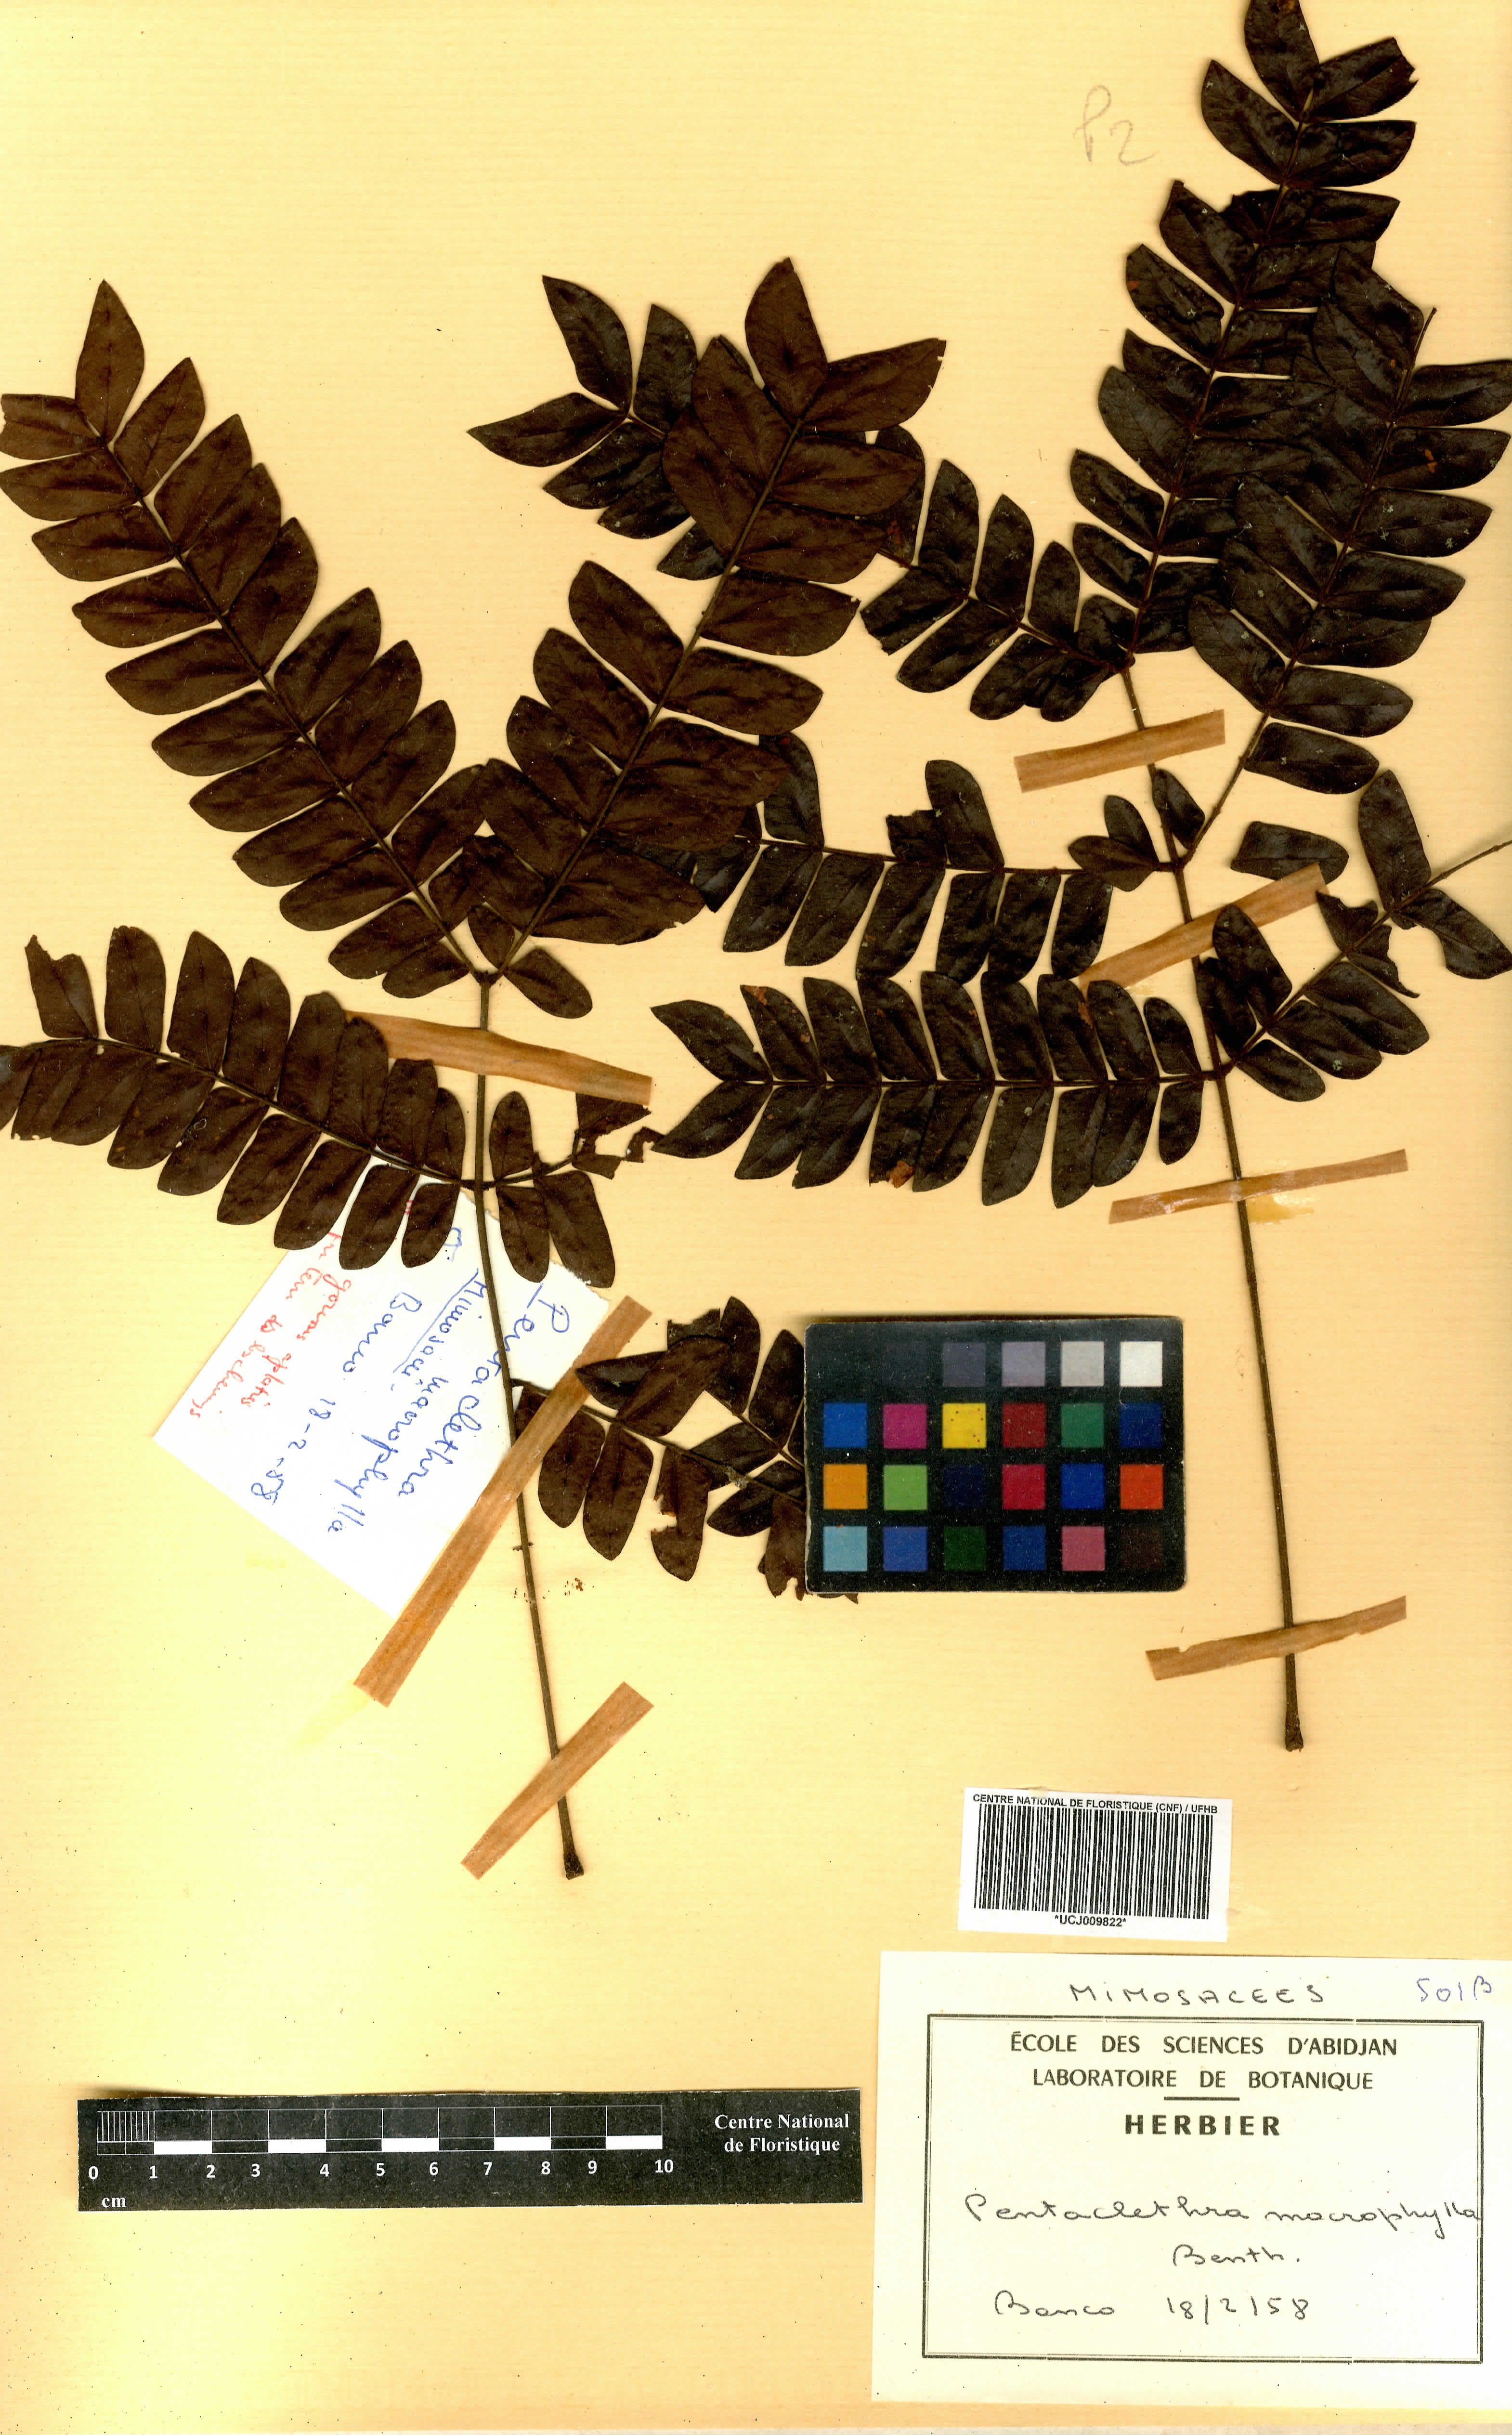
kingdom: Plantae
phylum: Tracheophyta
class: Magnoliopsida
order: Fabales
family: Fabaceae
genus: Pentaclethra
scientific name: Pentaclethra macrophylla
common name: African oil bean
